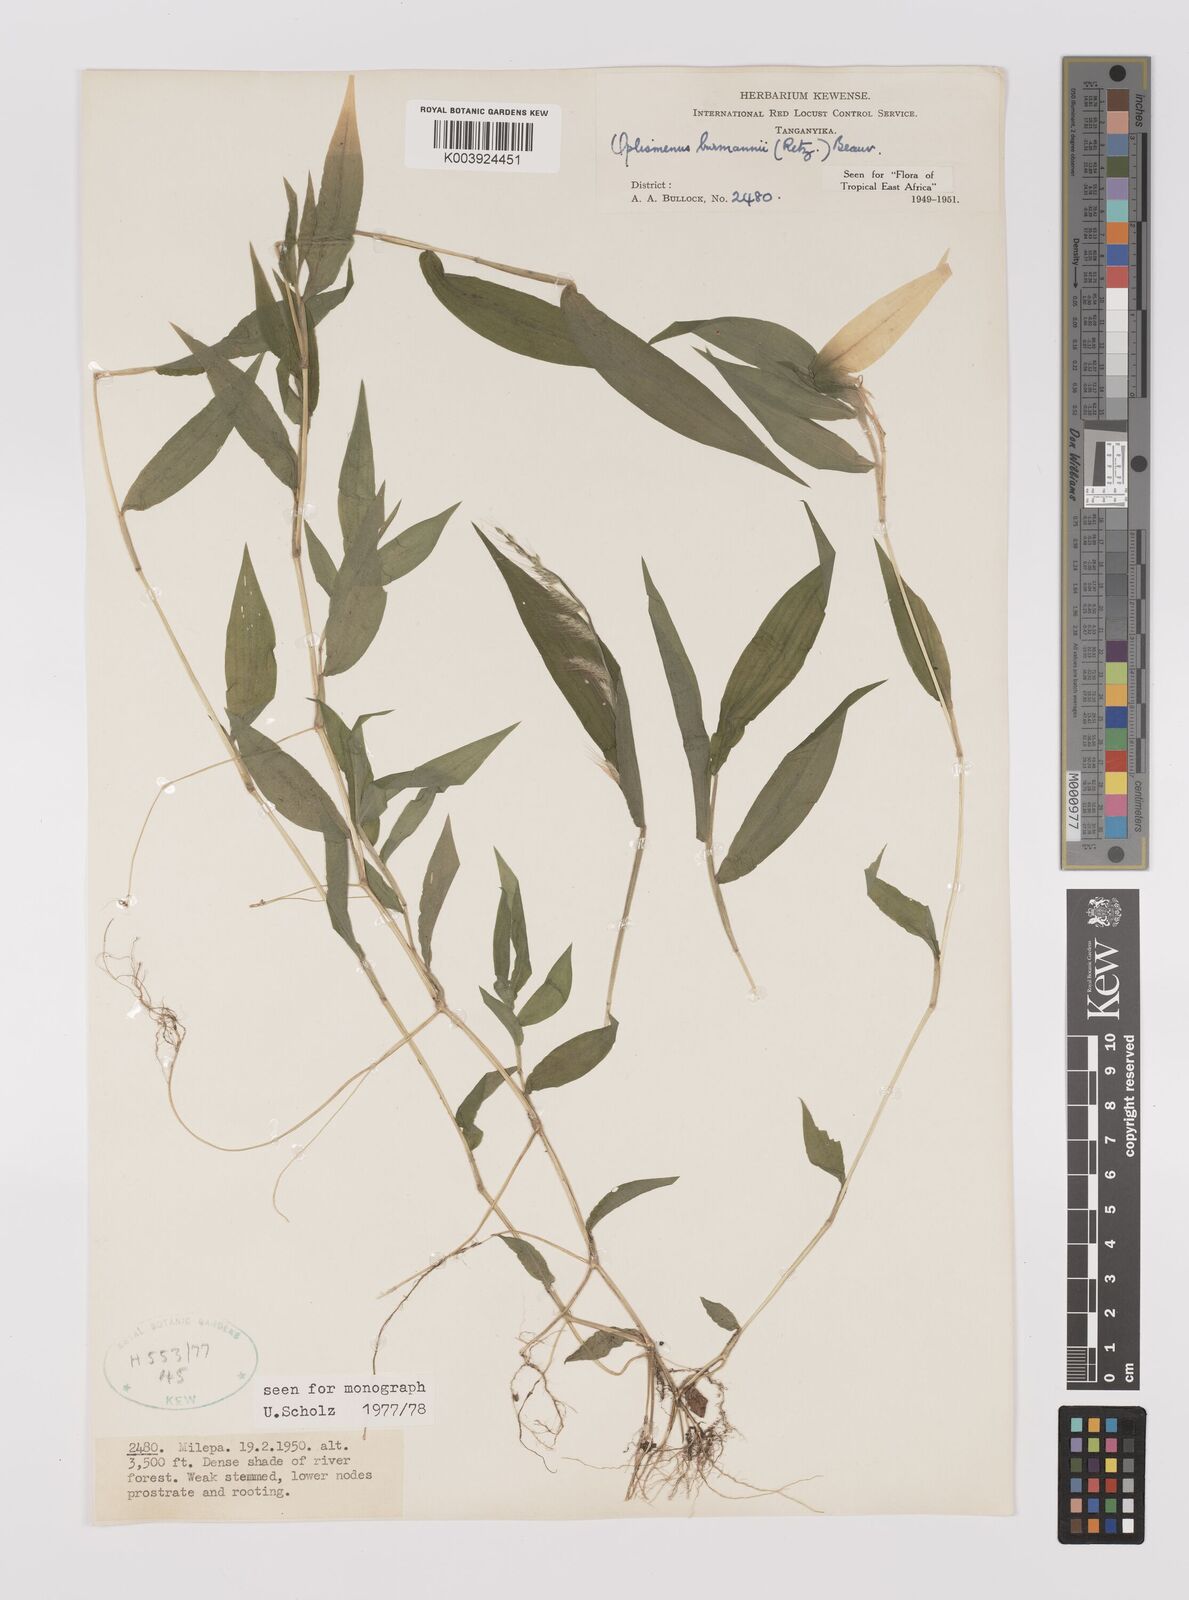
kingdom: Plantae
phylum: Tracheophyta
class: Liliopsida
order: Poales
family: Poaceae
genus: Oplismenus
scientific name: Oplismenus burmanni
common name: Burmann's basketgrass
